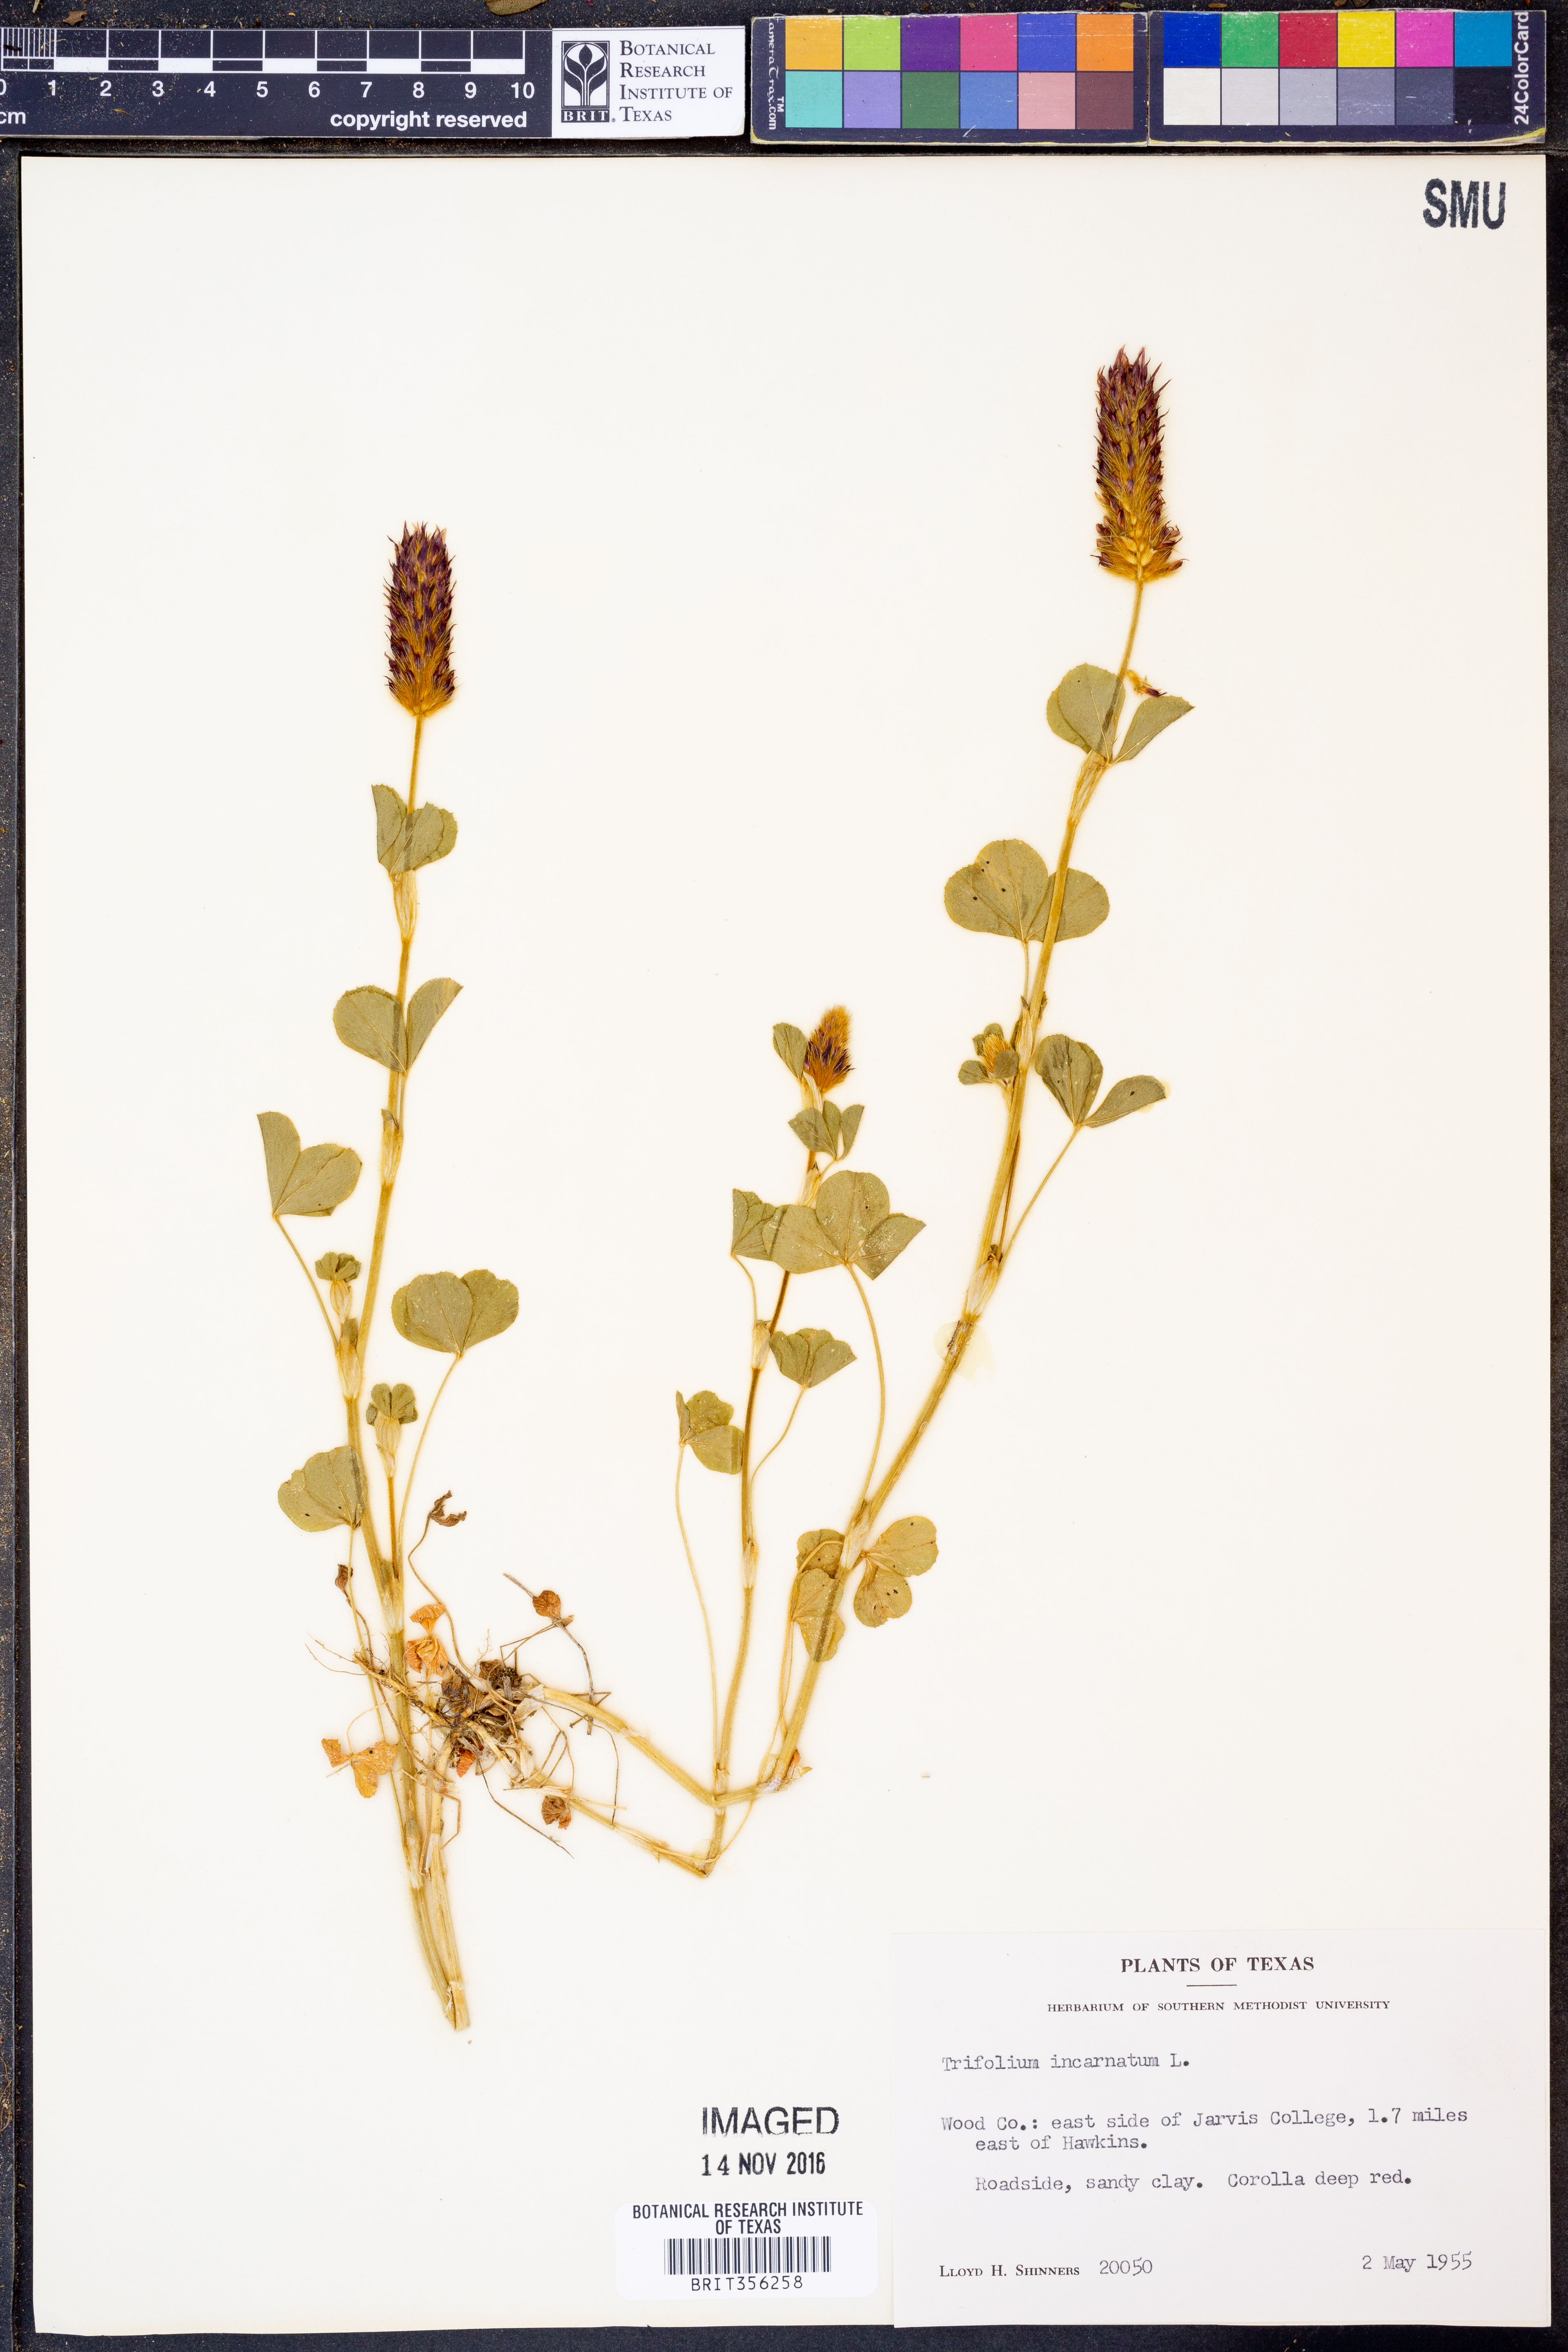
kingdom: Plantae
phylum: Tracheophyta
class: Magnoliopsida
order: Fabales
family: Fabaceae
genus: Trifolium
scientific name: Trifolium incarnatum
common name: Crimson clover
